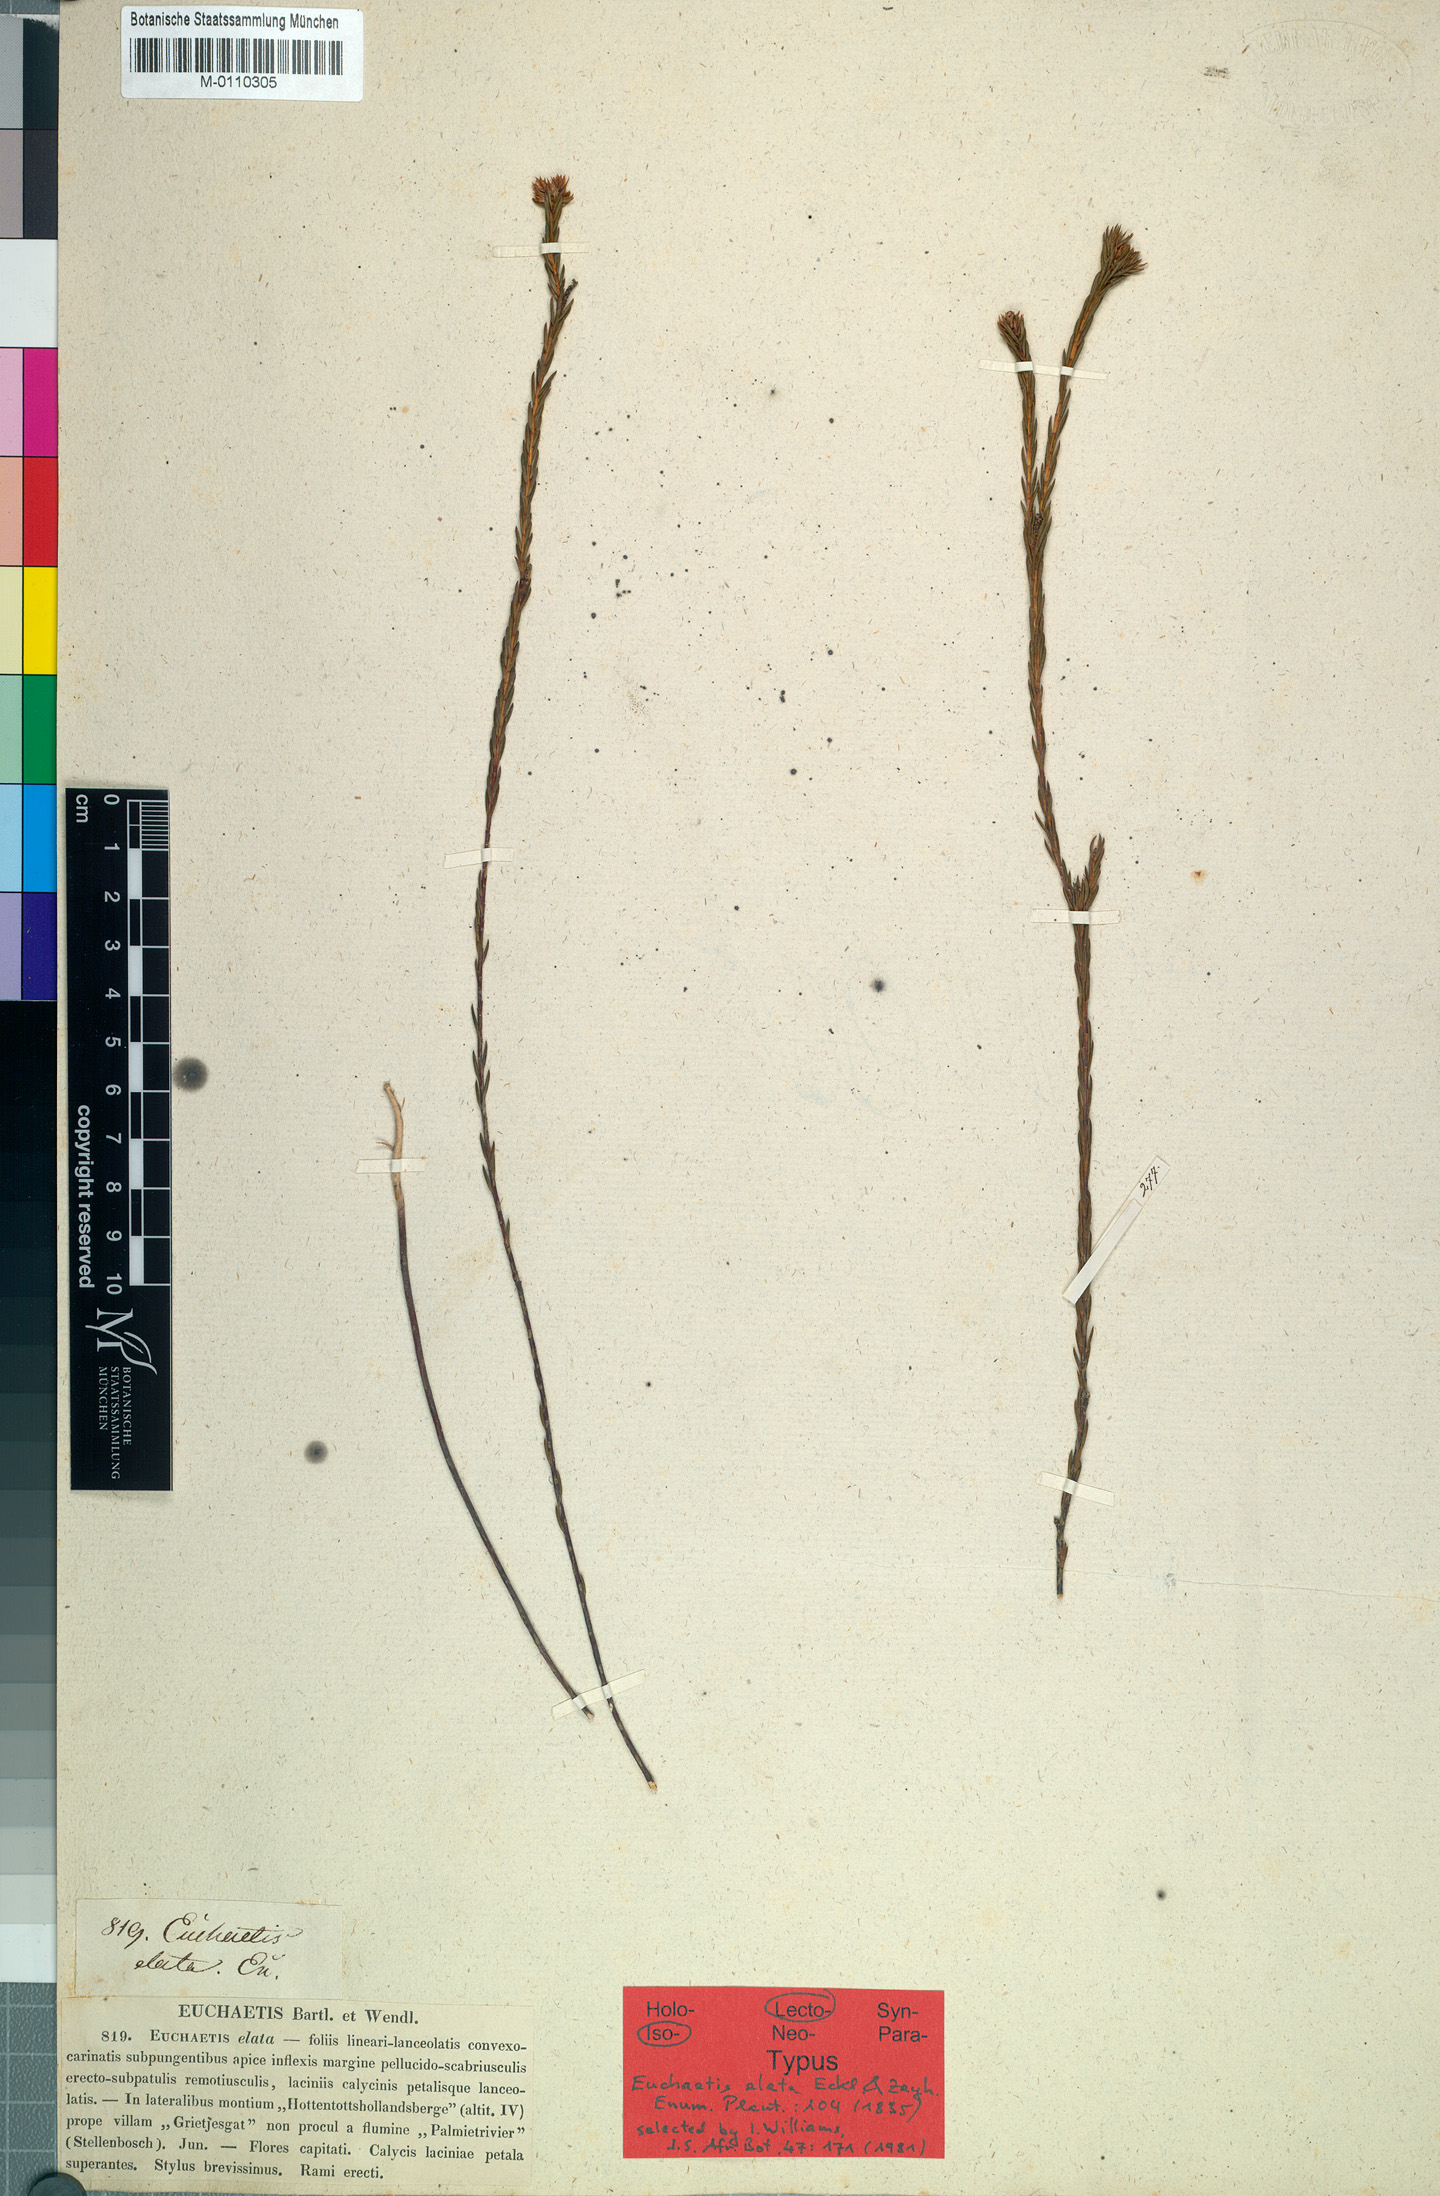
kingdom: Plantae
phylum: Tracheophyta
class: Magnoliopsida
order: Sapindales
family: Rutaceae
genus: Euchaetis
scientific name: Euchaetis elata
